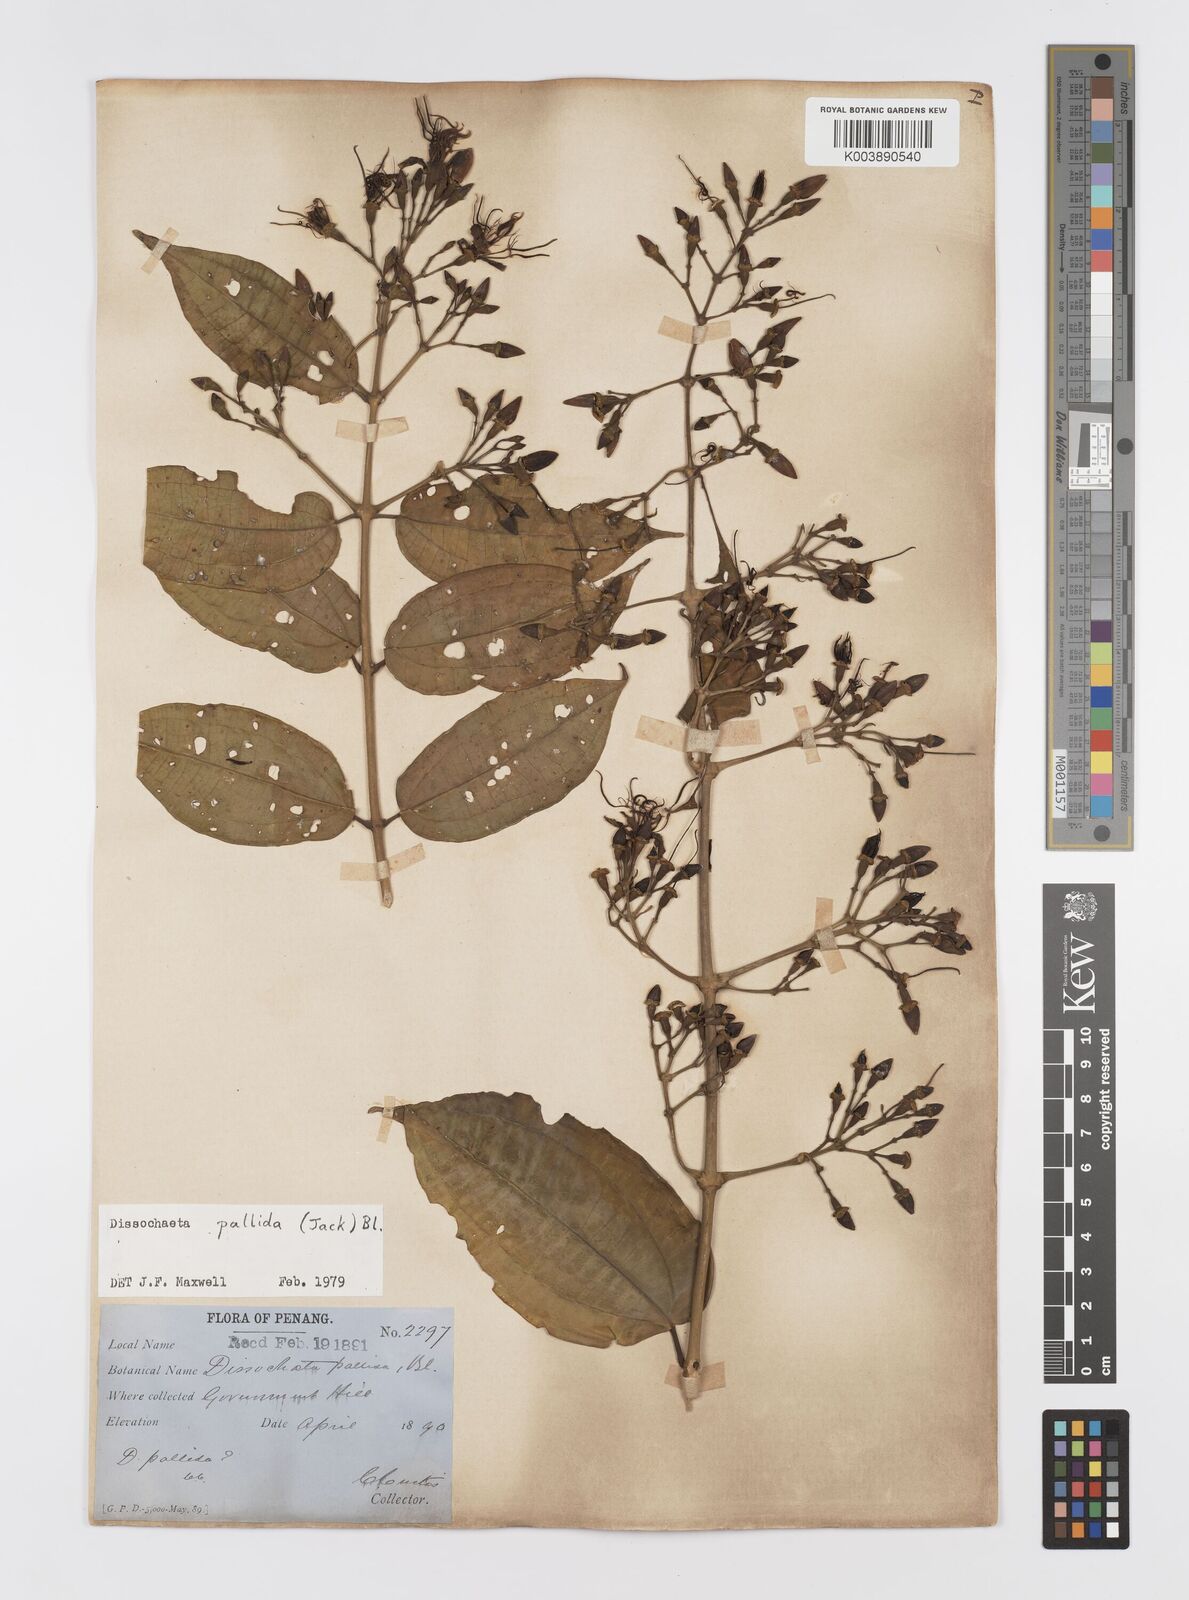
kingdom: Plantae
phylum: Tracheophyta
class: Magnoliopsida
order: Myrtales
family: Melastomataceae
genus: Dissochaeta
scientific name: Dissochaeta pallida
